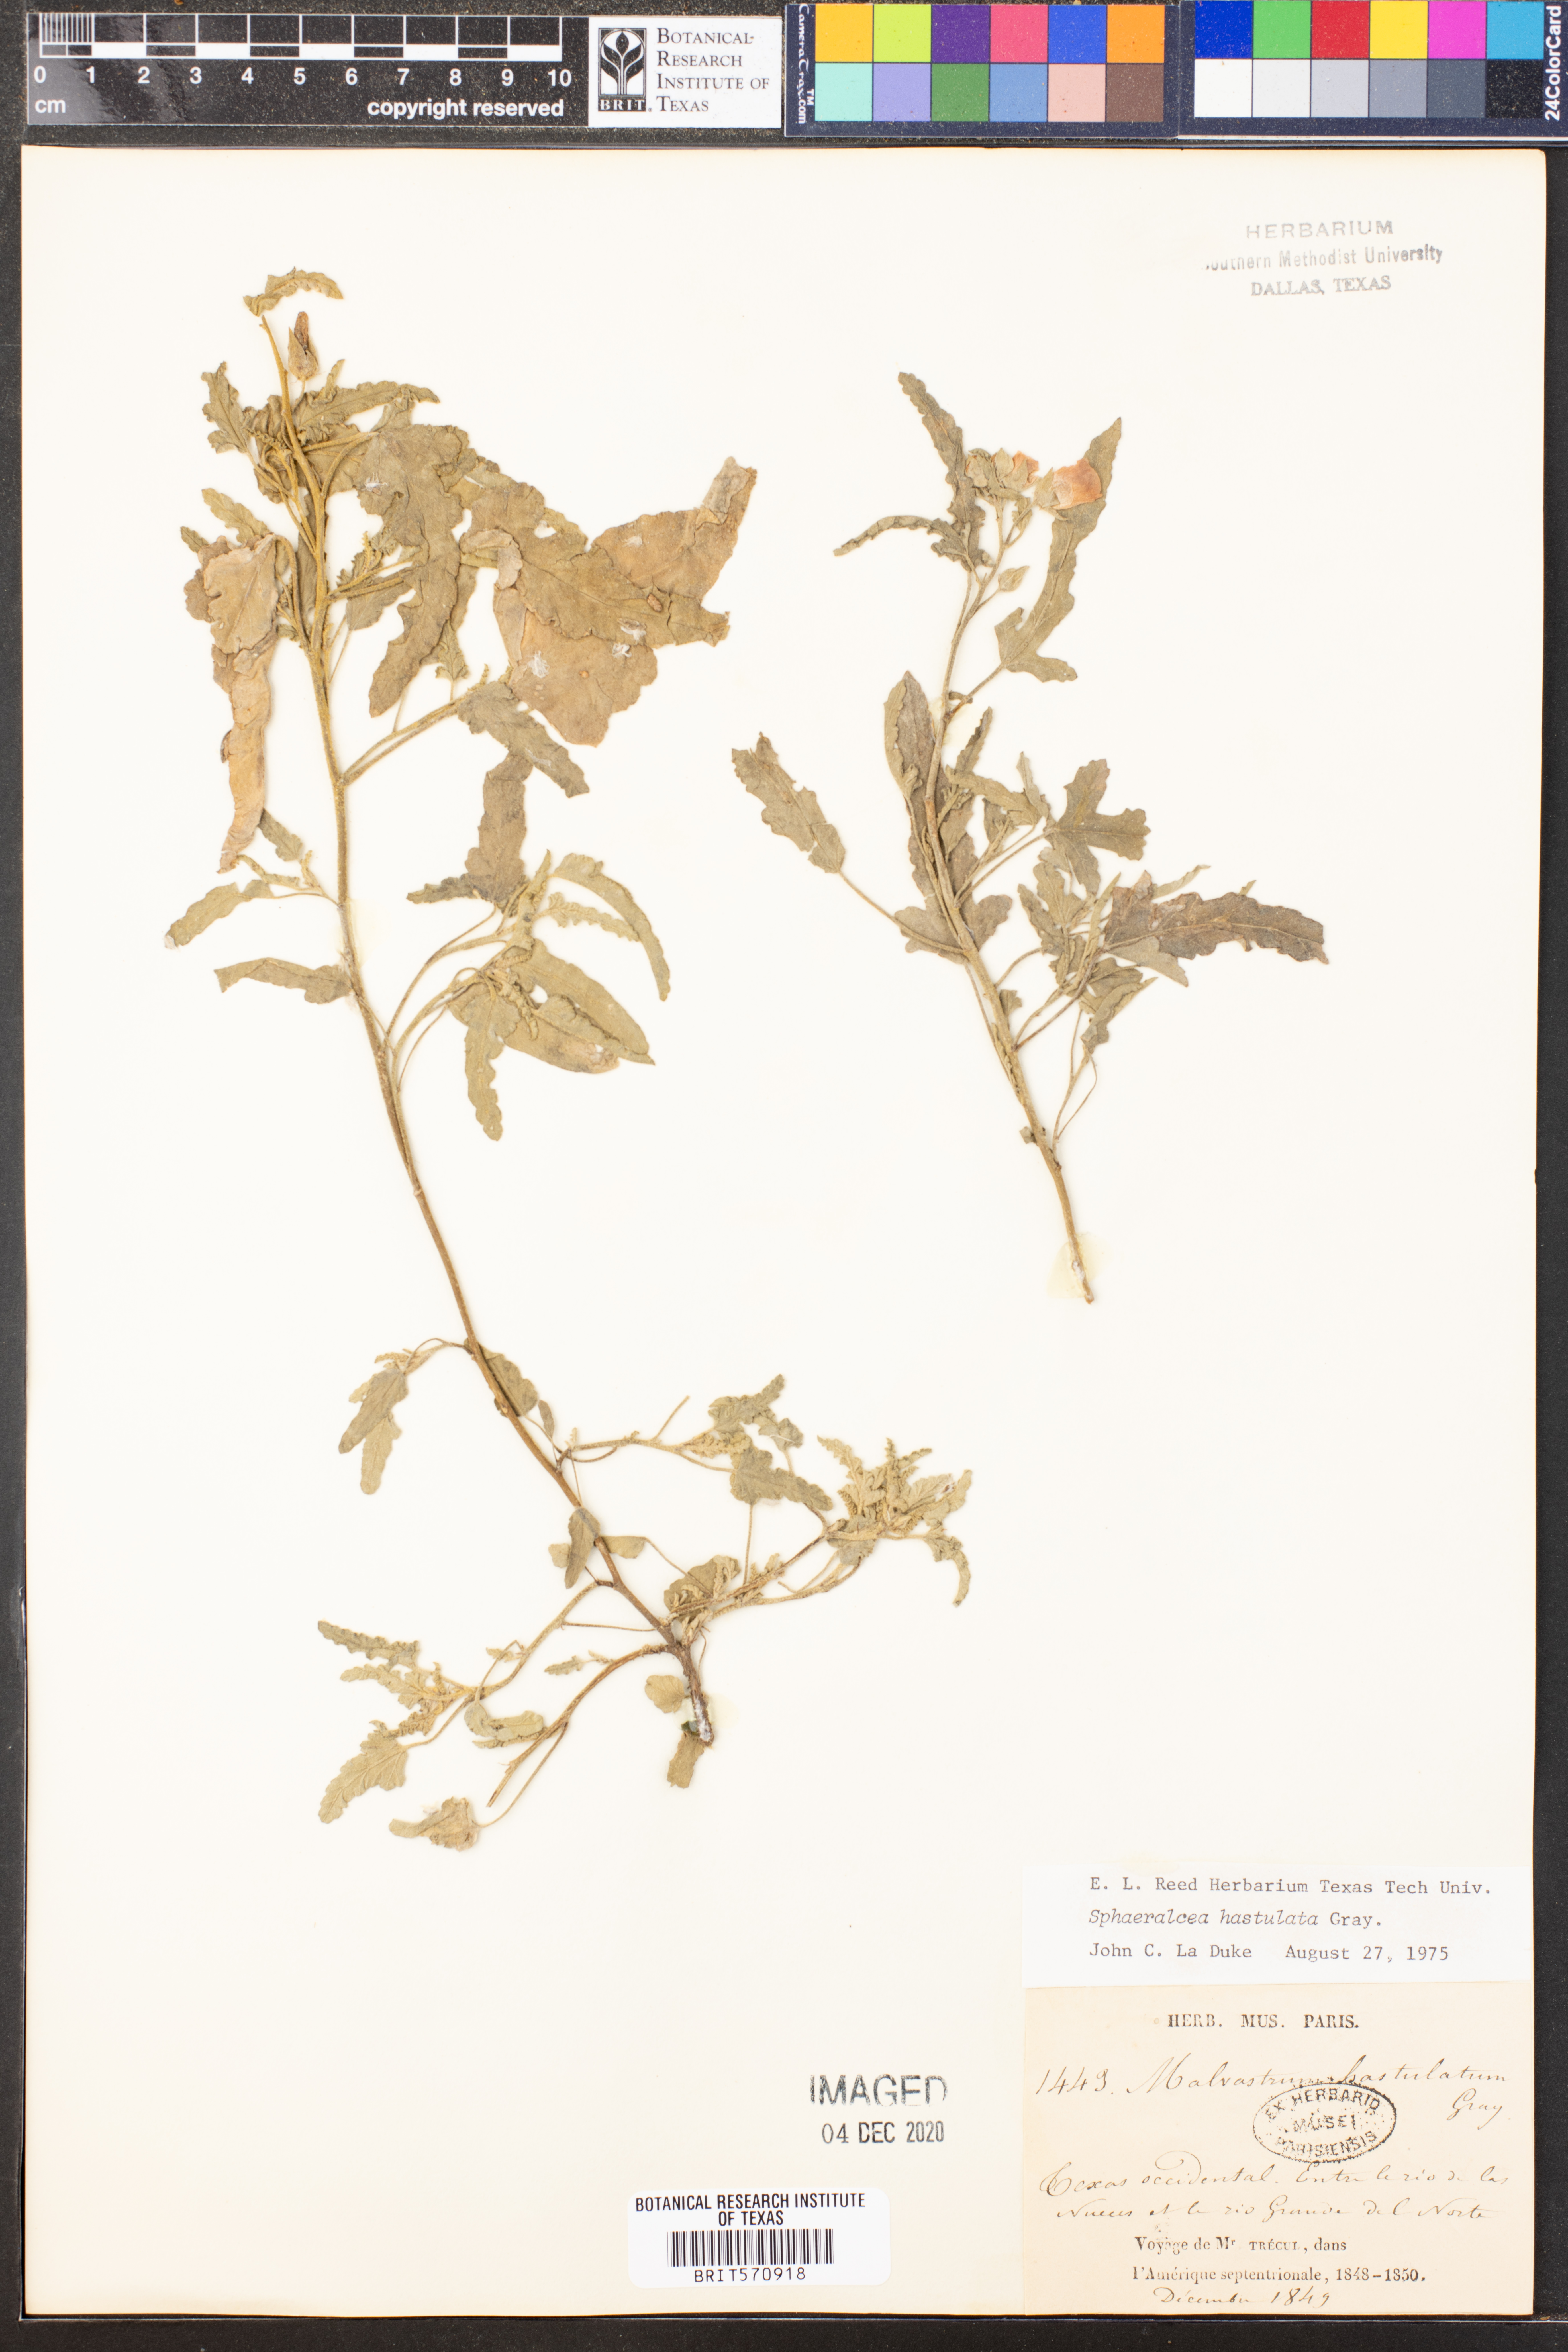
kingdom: Plantae
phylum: Tracheophyta
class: Magnoliopsida
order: Malvales
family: Malvaceae
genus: Sphaeralcea
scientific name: Sphaeralcea hastulata
